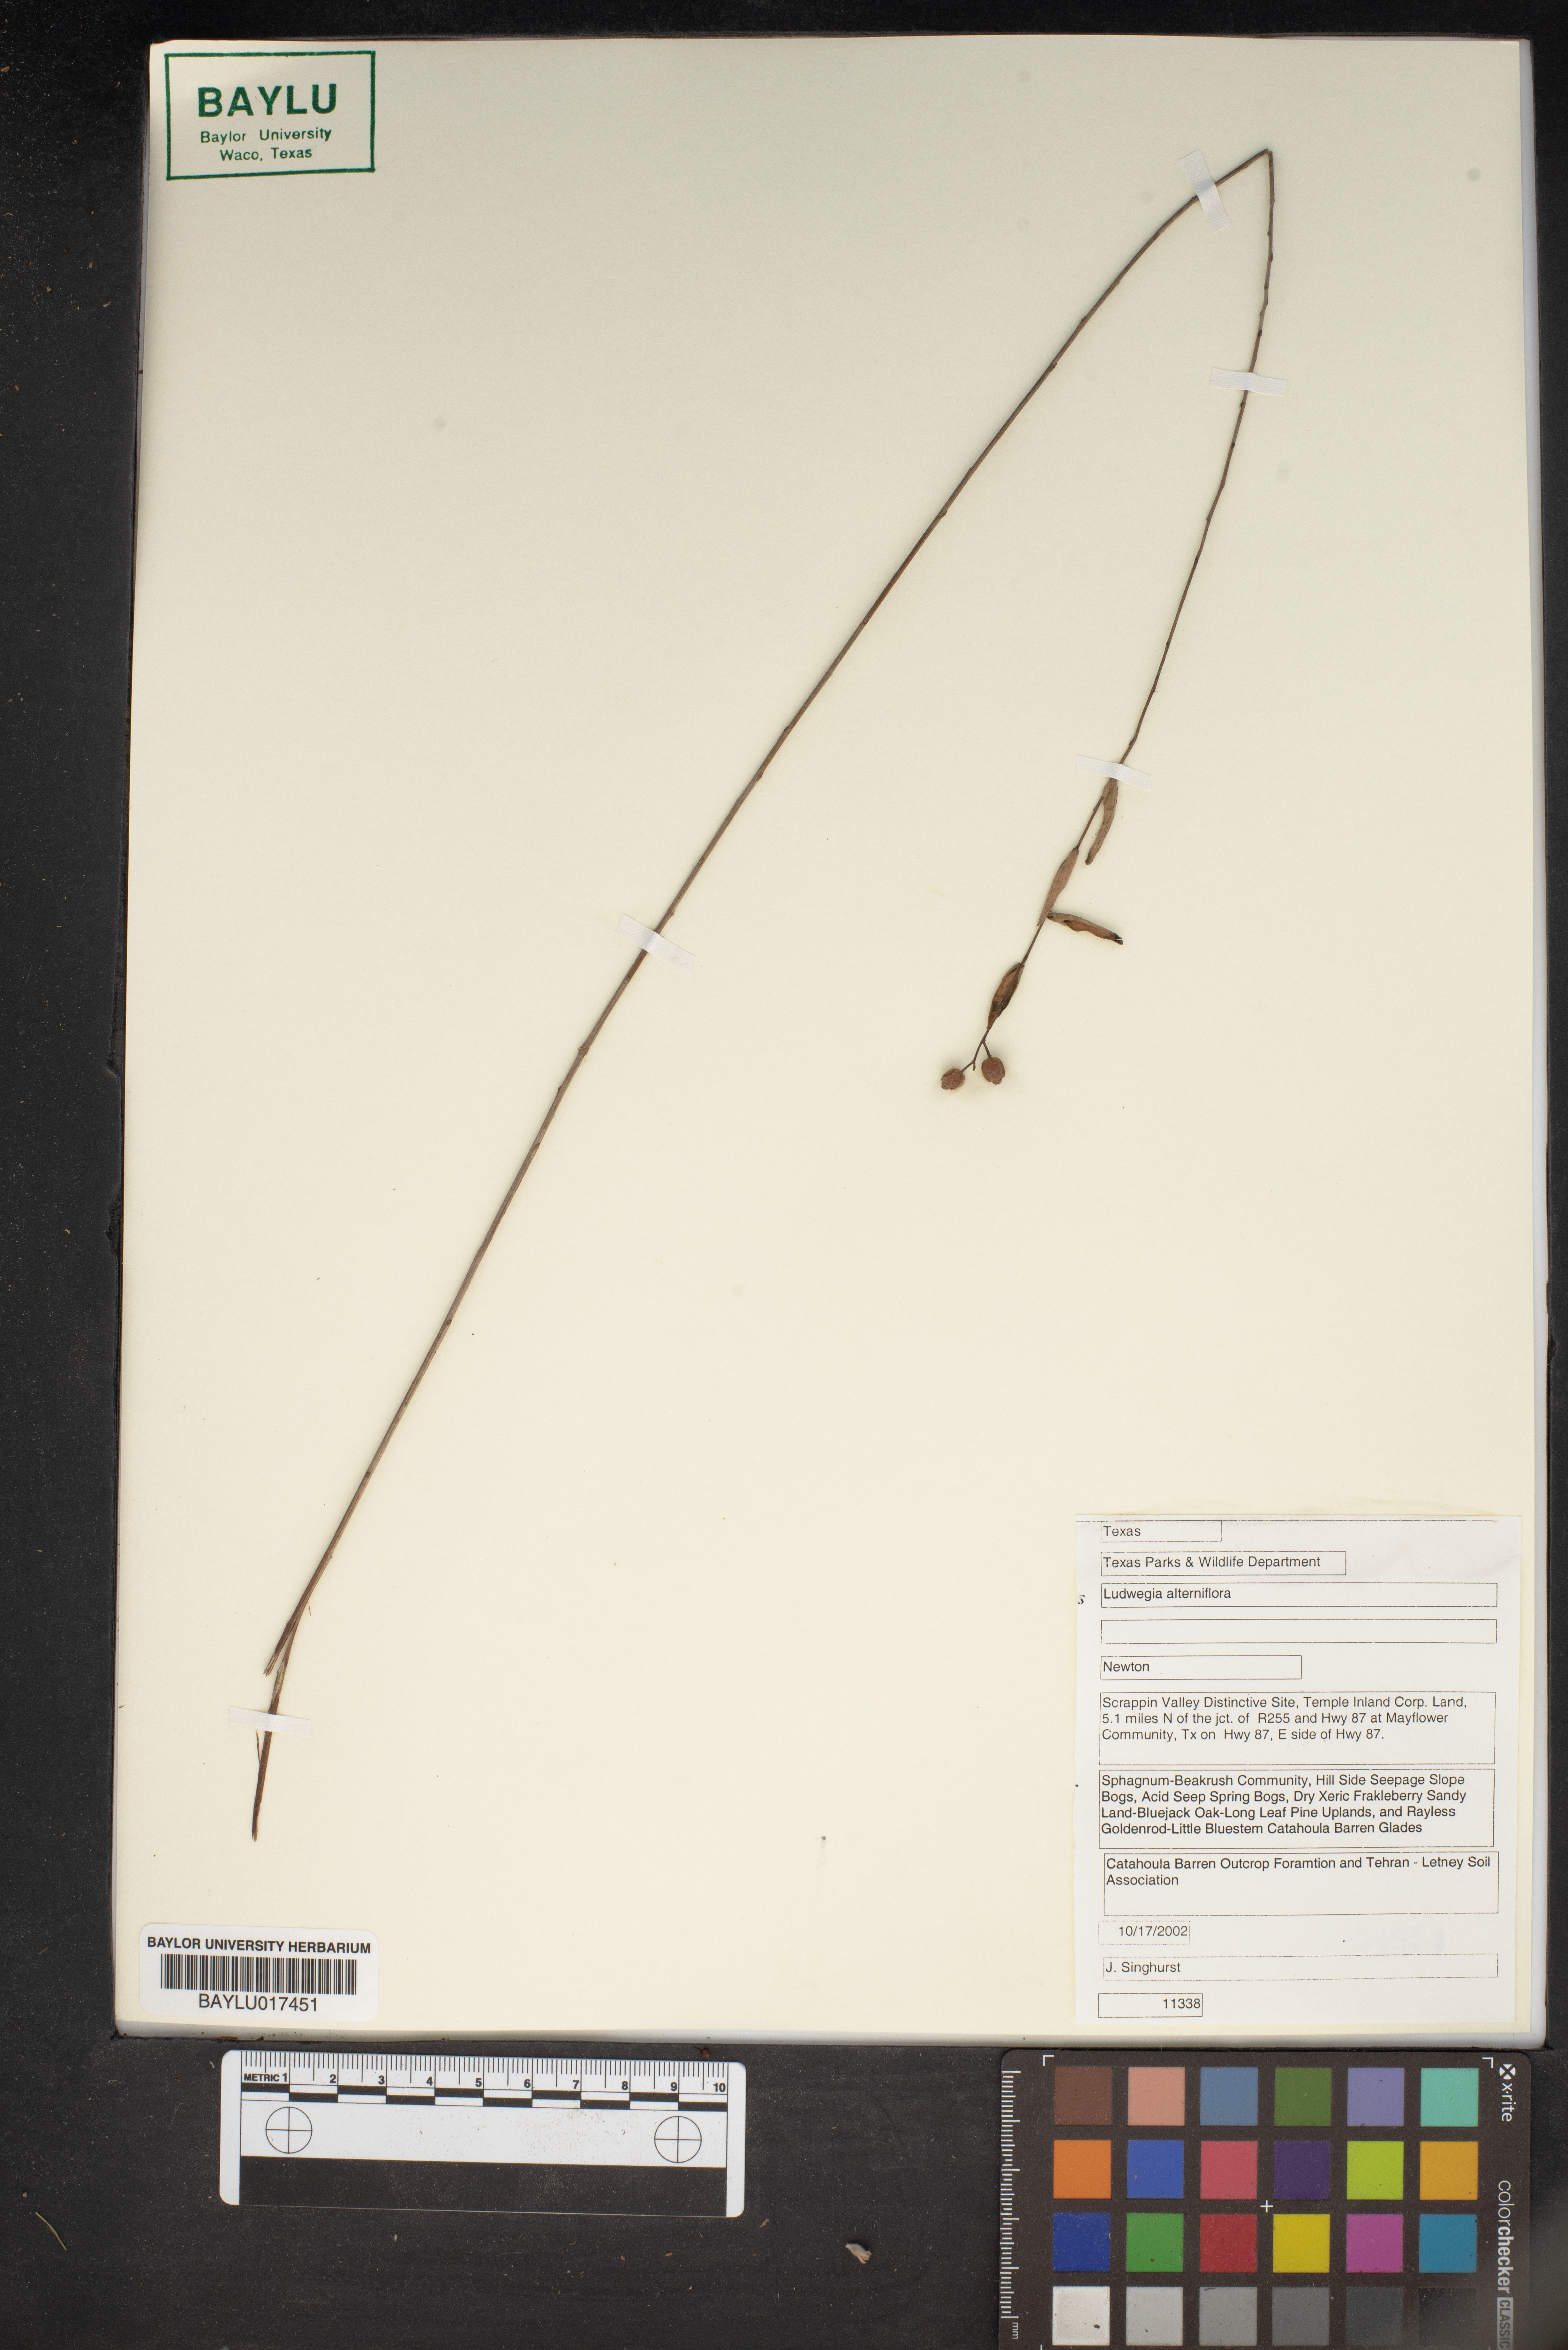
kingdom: Plantae
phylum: Tracheophyta
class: Magnoliopsida
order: Myrtales
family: Onagraceae
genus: Ludwigia
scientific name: Ludwigia alternifolia
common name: Rattlebox
